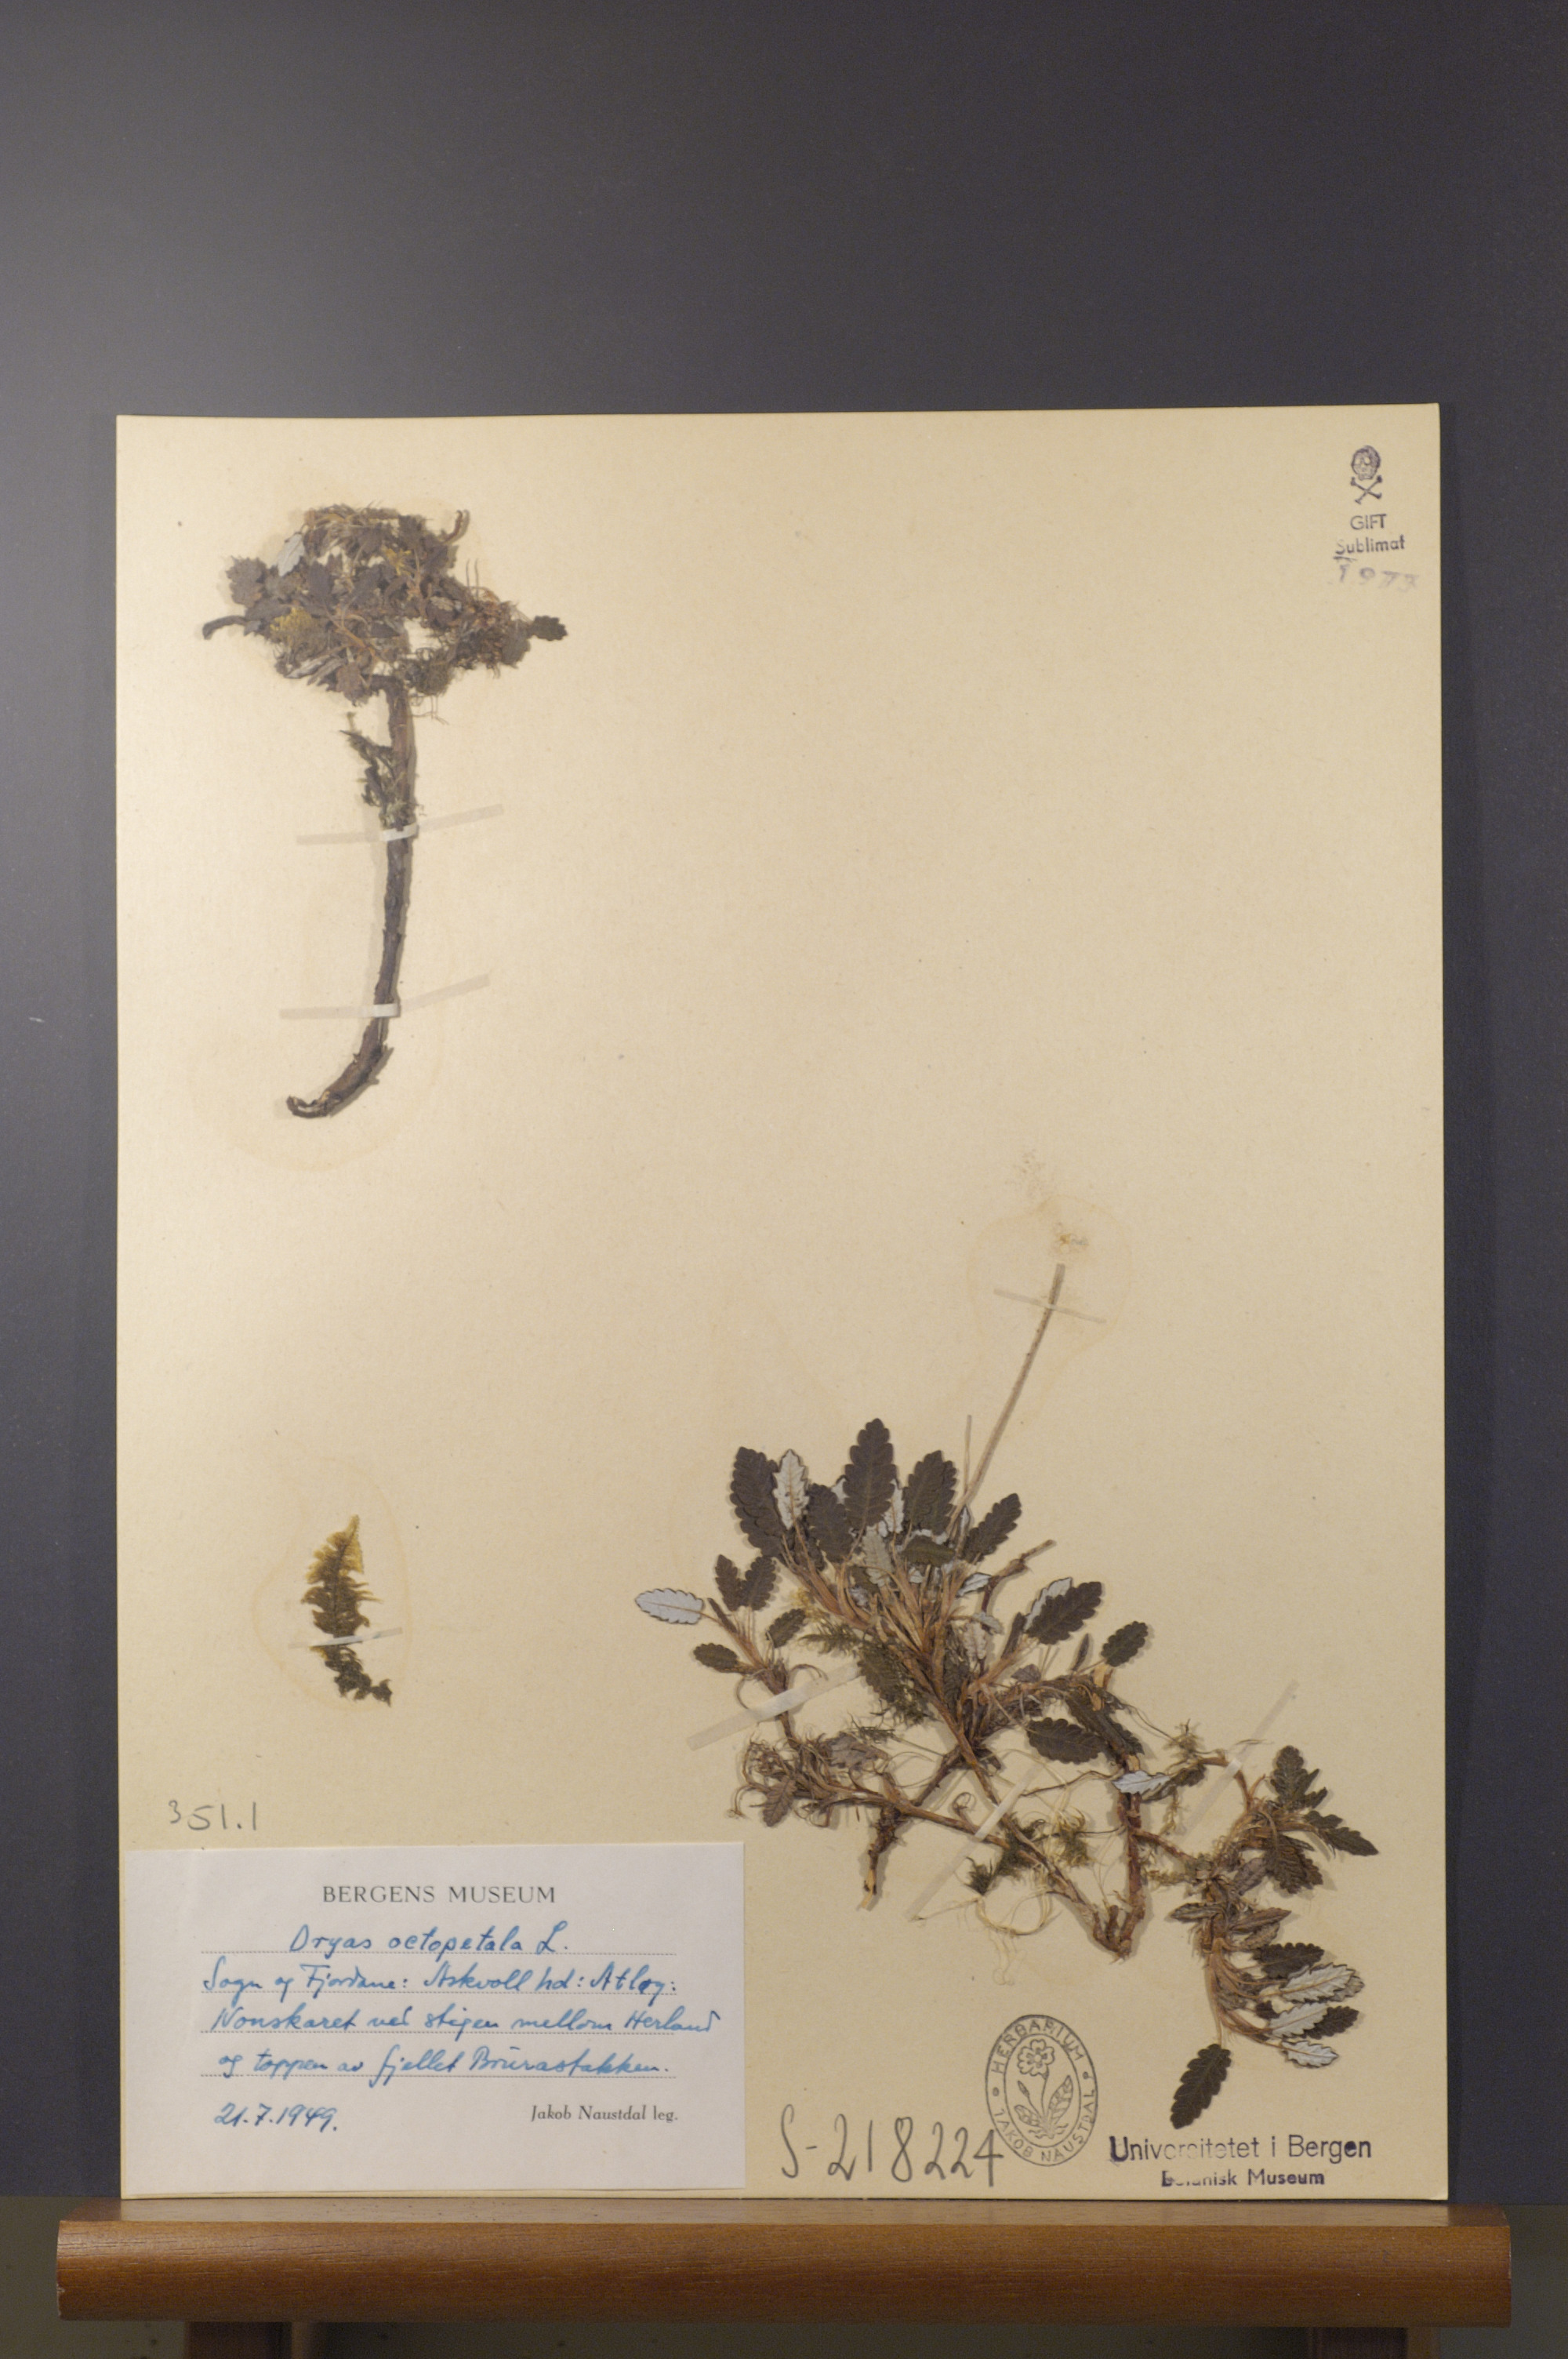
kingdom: Plantae
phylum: Tracheophyta
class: Magnoliopsida
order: Rosales
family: Rosaceae
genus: Dryas
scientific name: Dryas octopetala
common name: Eight-petal mountain-avens
